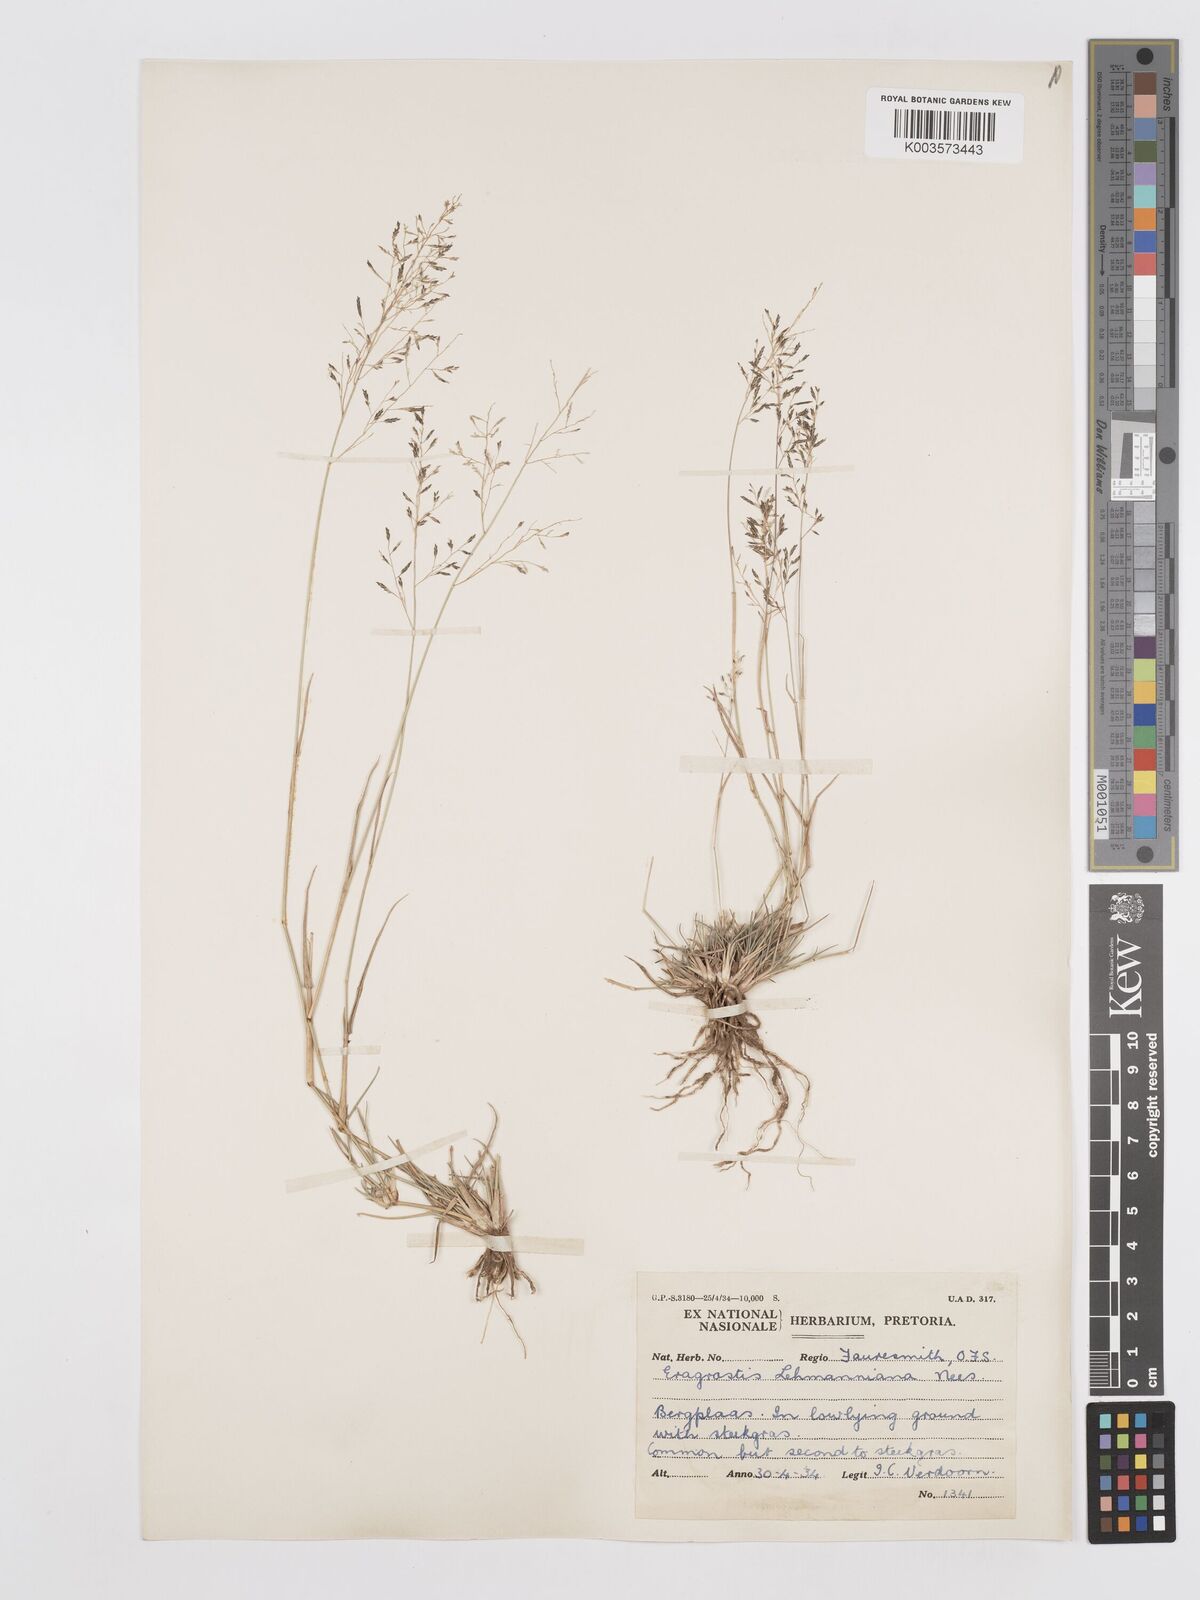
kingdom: Plantae
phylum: Tracheophyta
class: Liliopsida
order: Poales
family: Poaceae
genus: Eragrostis
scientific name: Eragrostis lehmanniana
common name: Lehmann lovegrass
